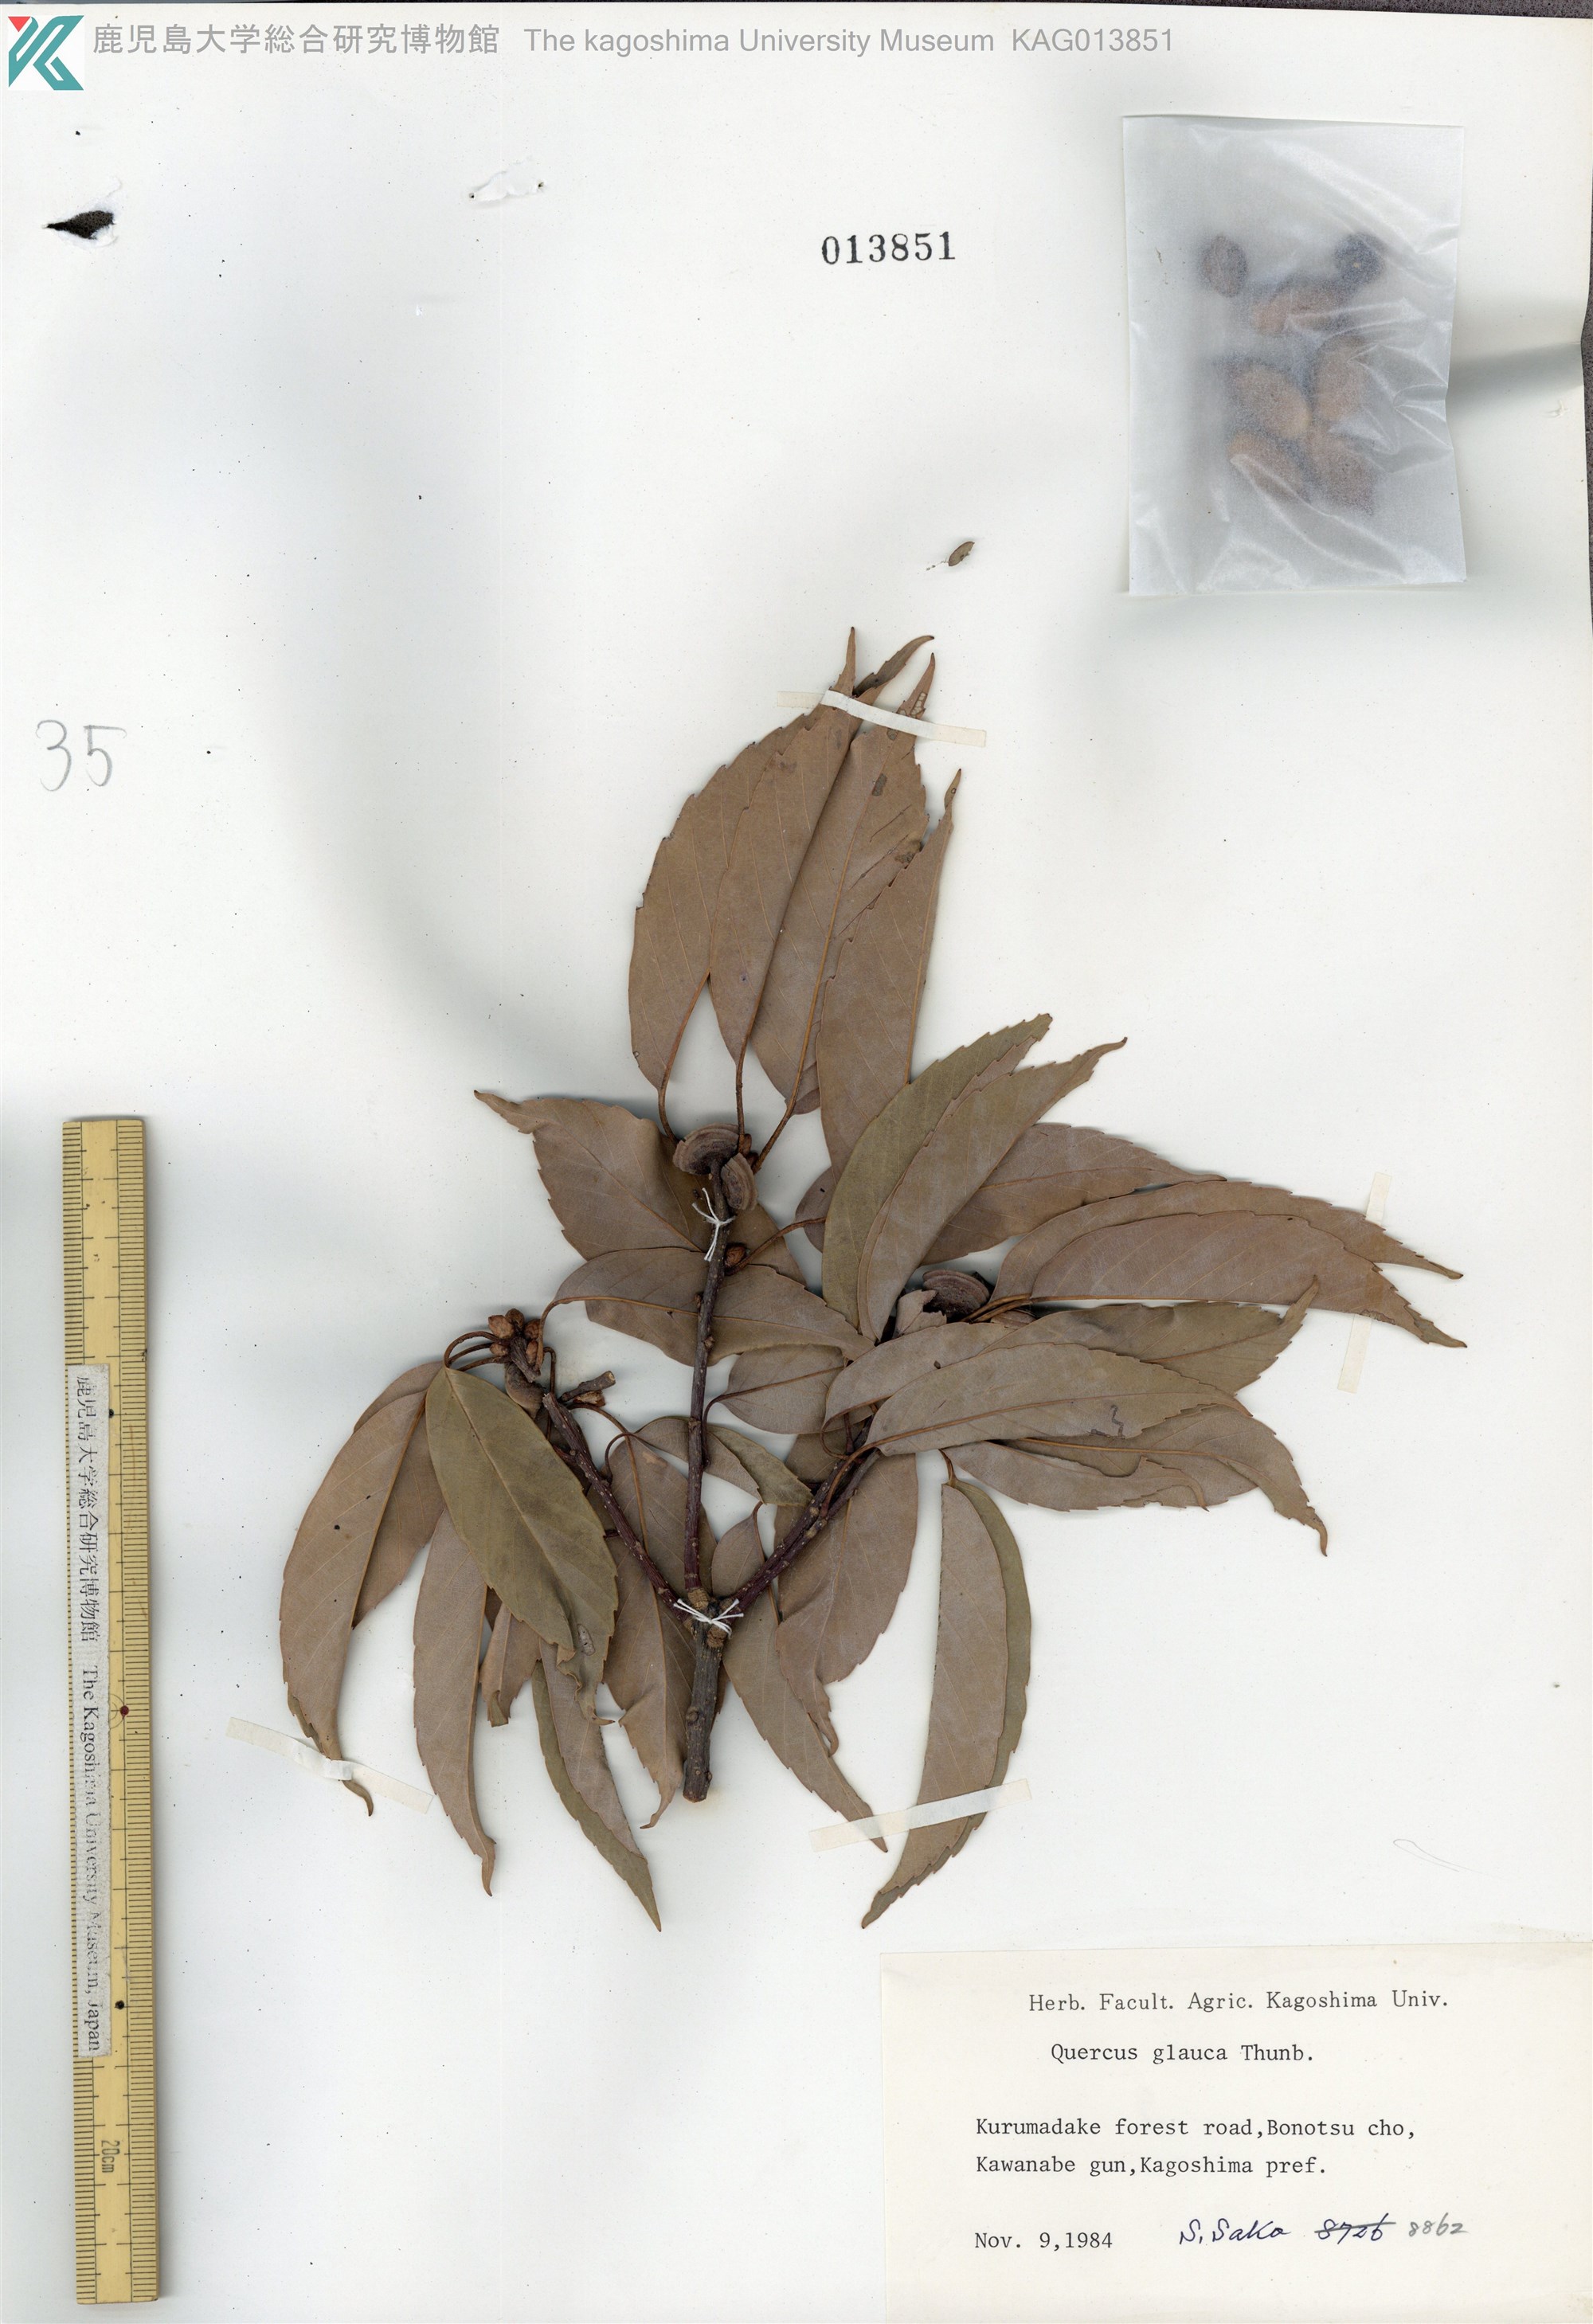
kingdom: Plantae
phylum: Tracheophyta
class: Magnoliopsida
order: Fagales
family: Fagaceae
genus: Quercus
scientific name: Quercus glauca
